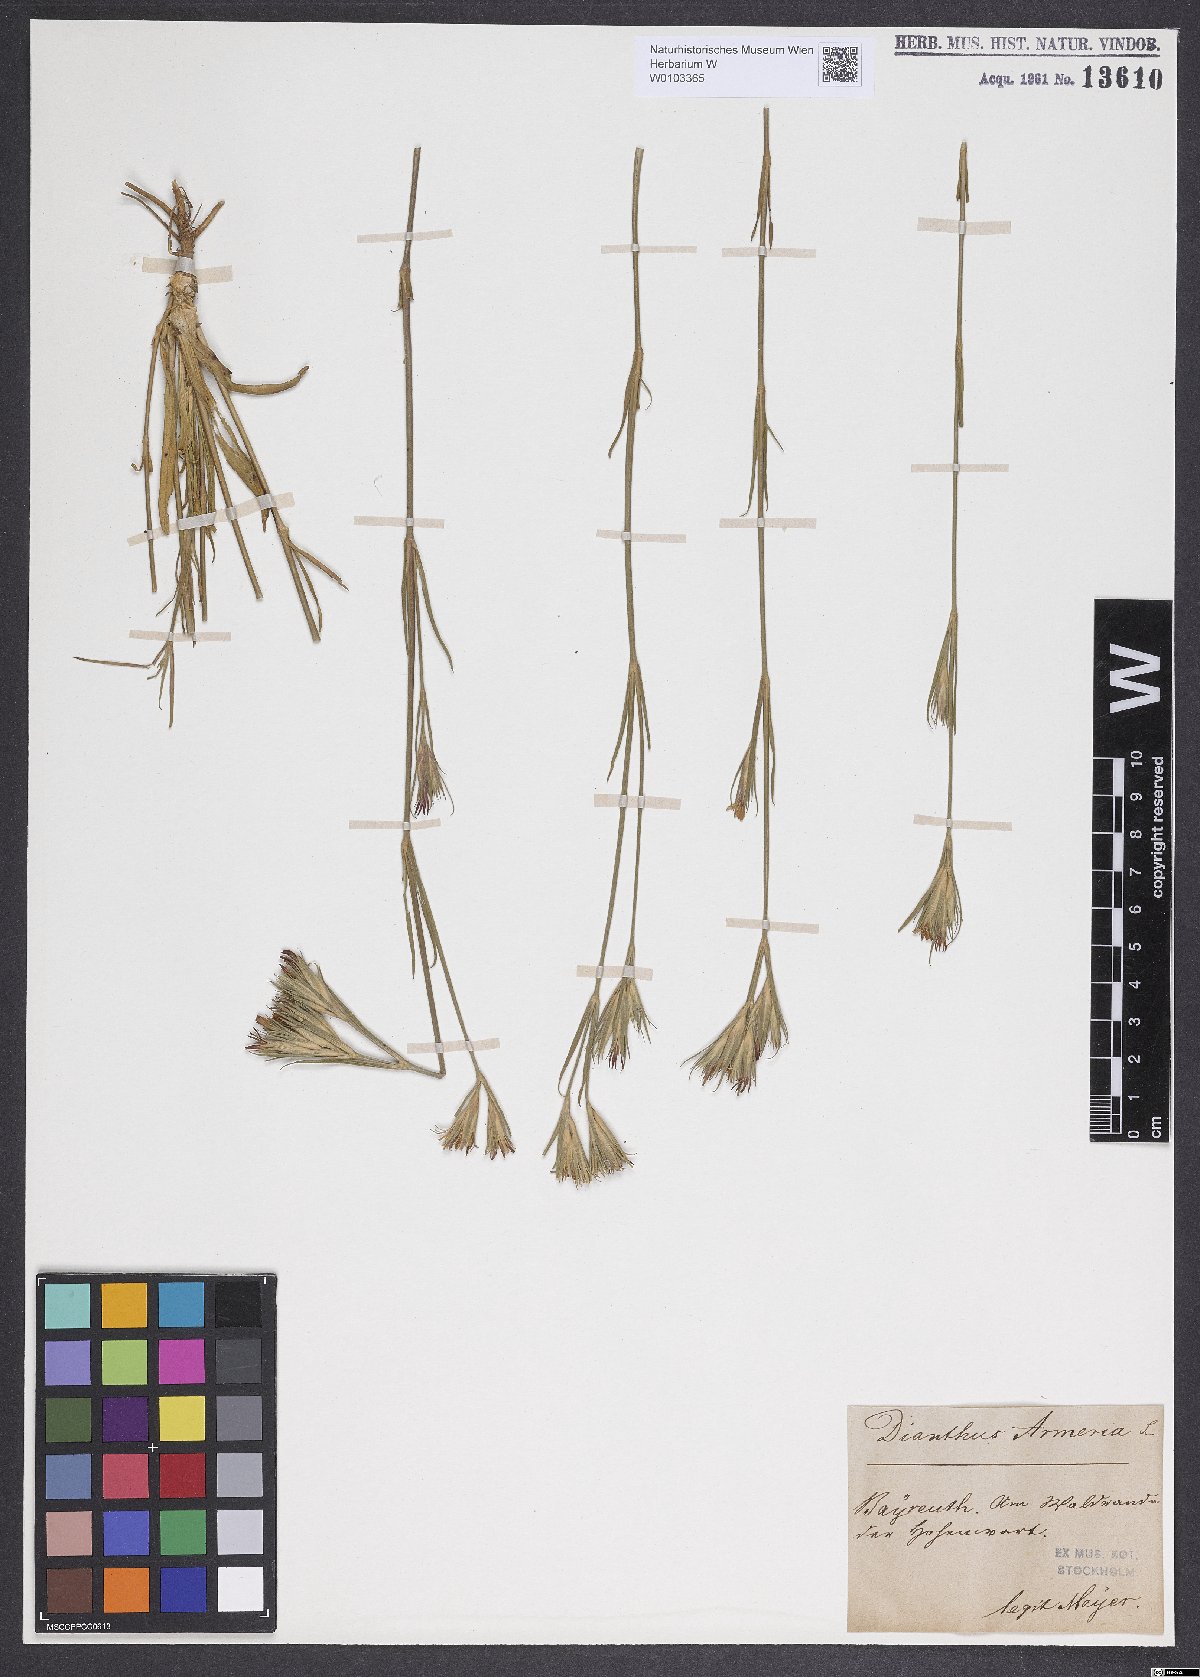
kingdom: Plantae
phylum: Tracheophyta
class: Magnoliopsida
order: Caryophyllales
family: Caryophyllaceae
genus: Dianthus
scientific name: Dianthus armeria
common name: Deptford pink
